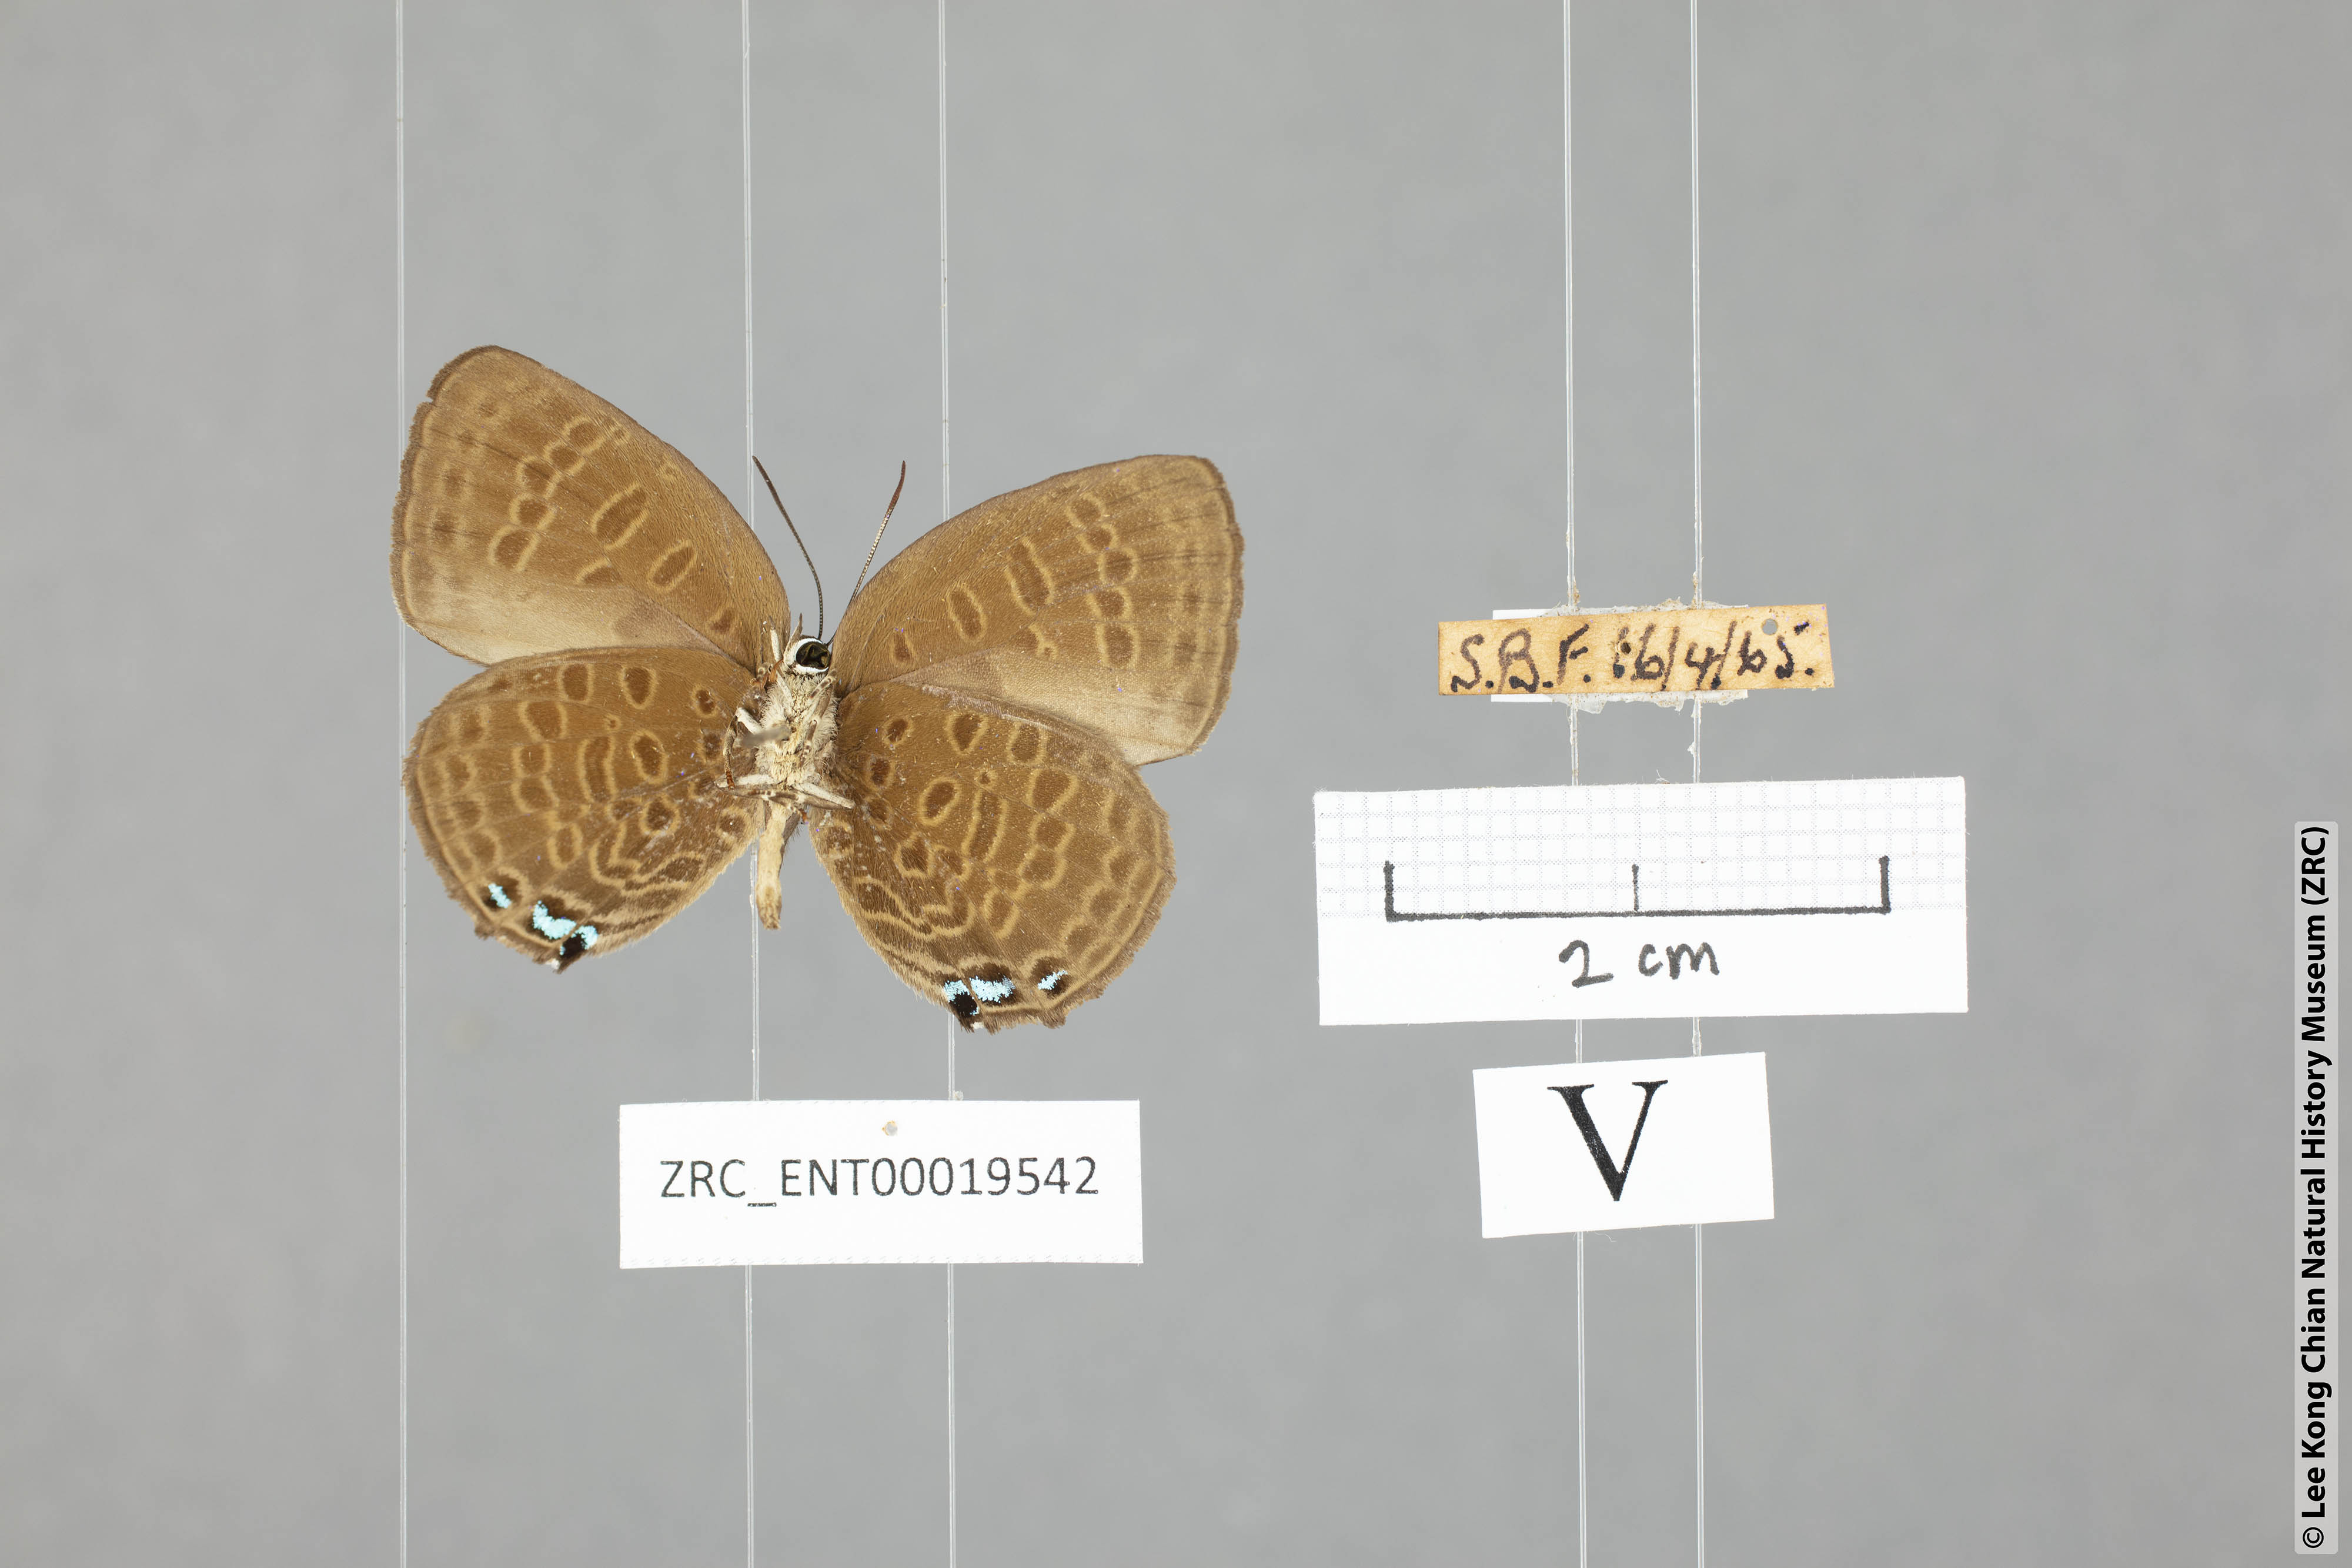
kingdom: Animalia
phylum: Arthropoda
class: Insecta
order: Lepidoptera
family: Lycaenidae
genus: Arhopala
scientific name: Arhopala hypomuta
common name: Violet oakblue
